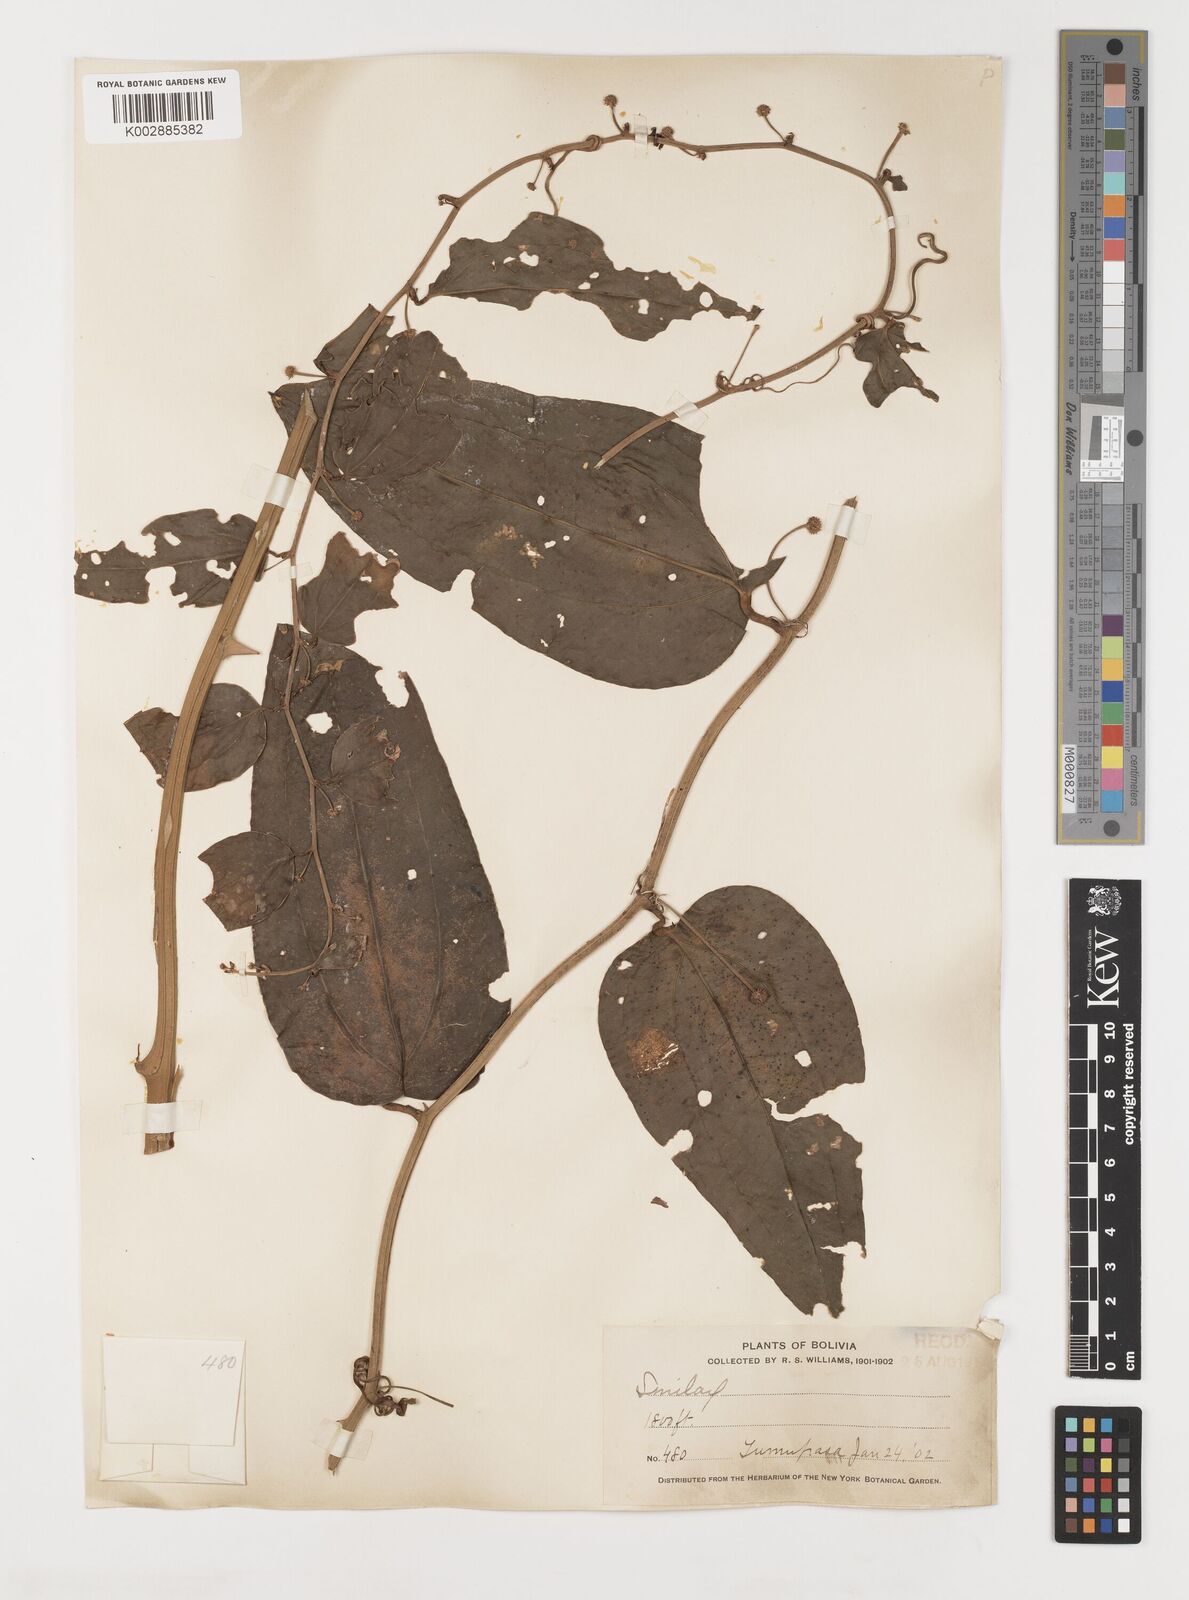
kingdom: Plantae
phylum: Tracheophyta
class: Liliopsida
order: Liliales
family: Smilacaceae
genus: Smilax
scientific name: Smilax
